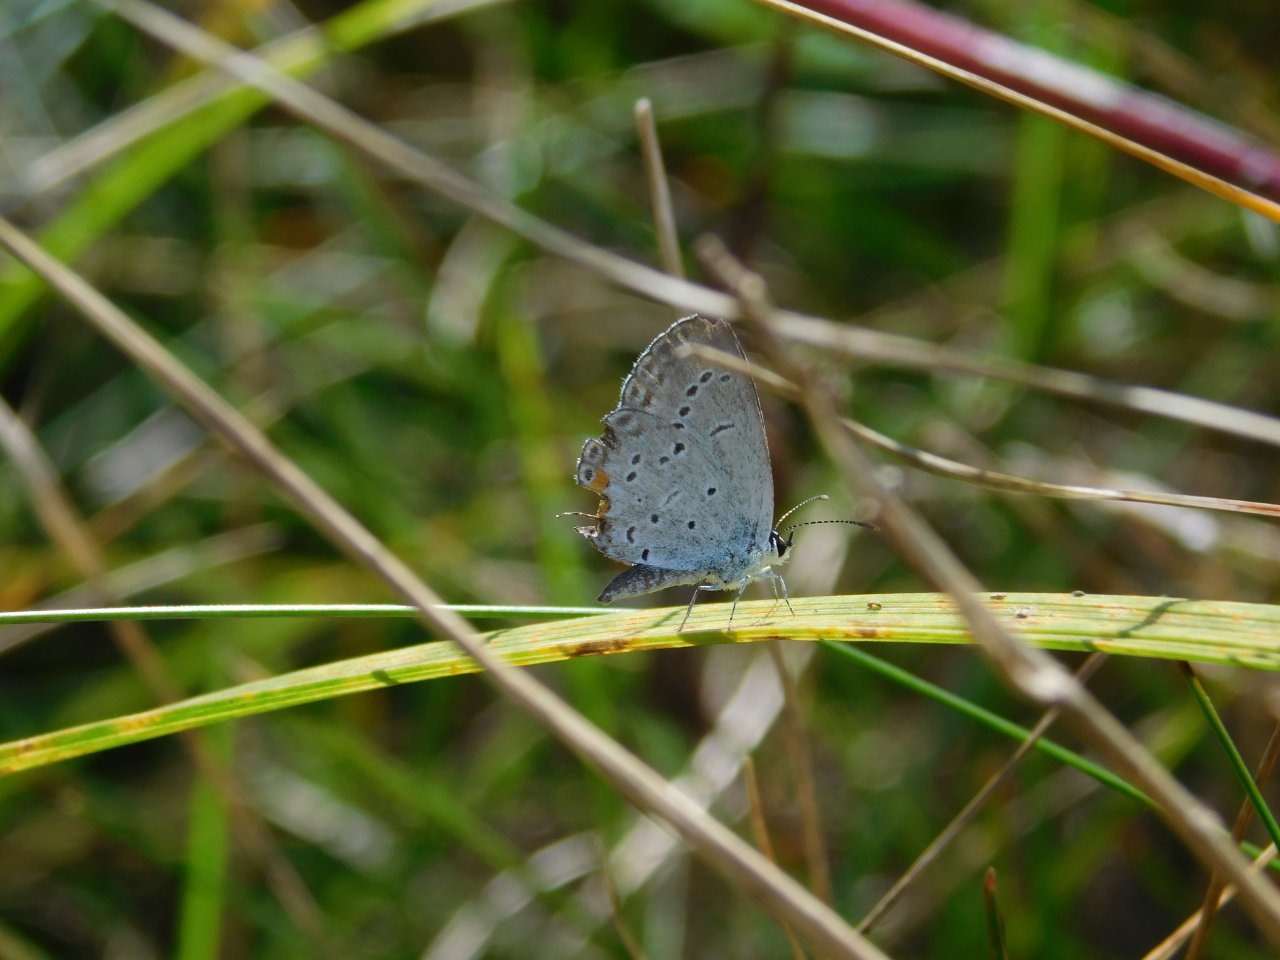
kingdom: Animalia
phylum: Arthropoda
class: Insecta
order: Lepidoptera
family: Lycaenidae
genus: Elkalyce
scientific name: Elkalyce comyntas
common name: Eastern Tailed-Blue
